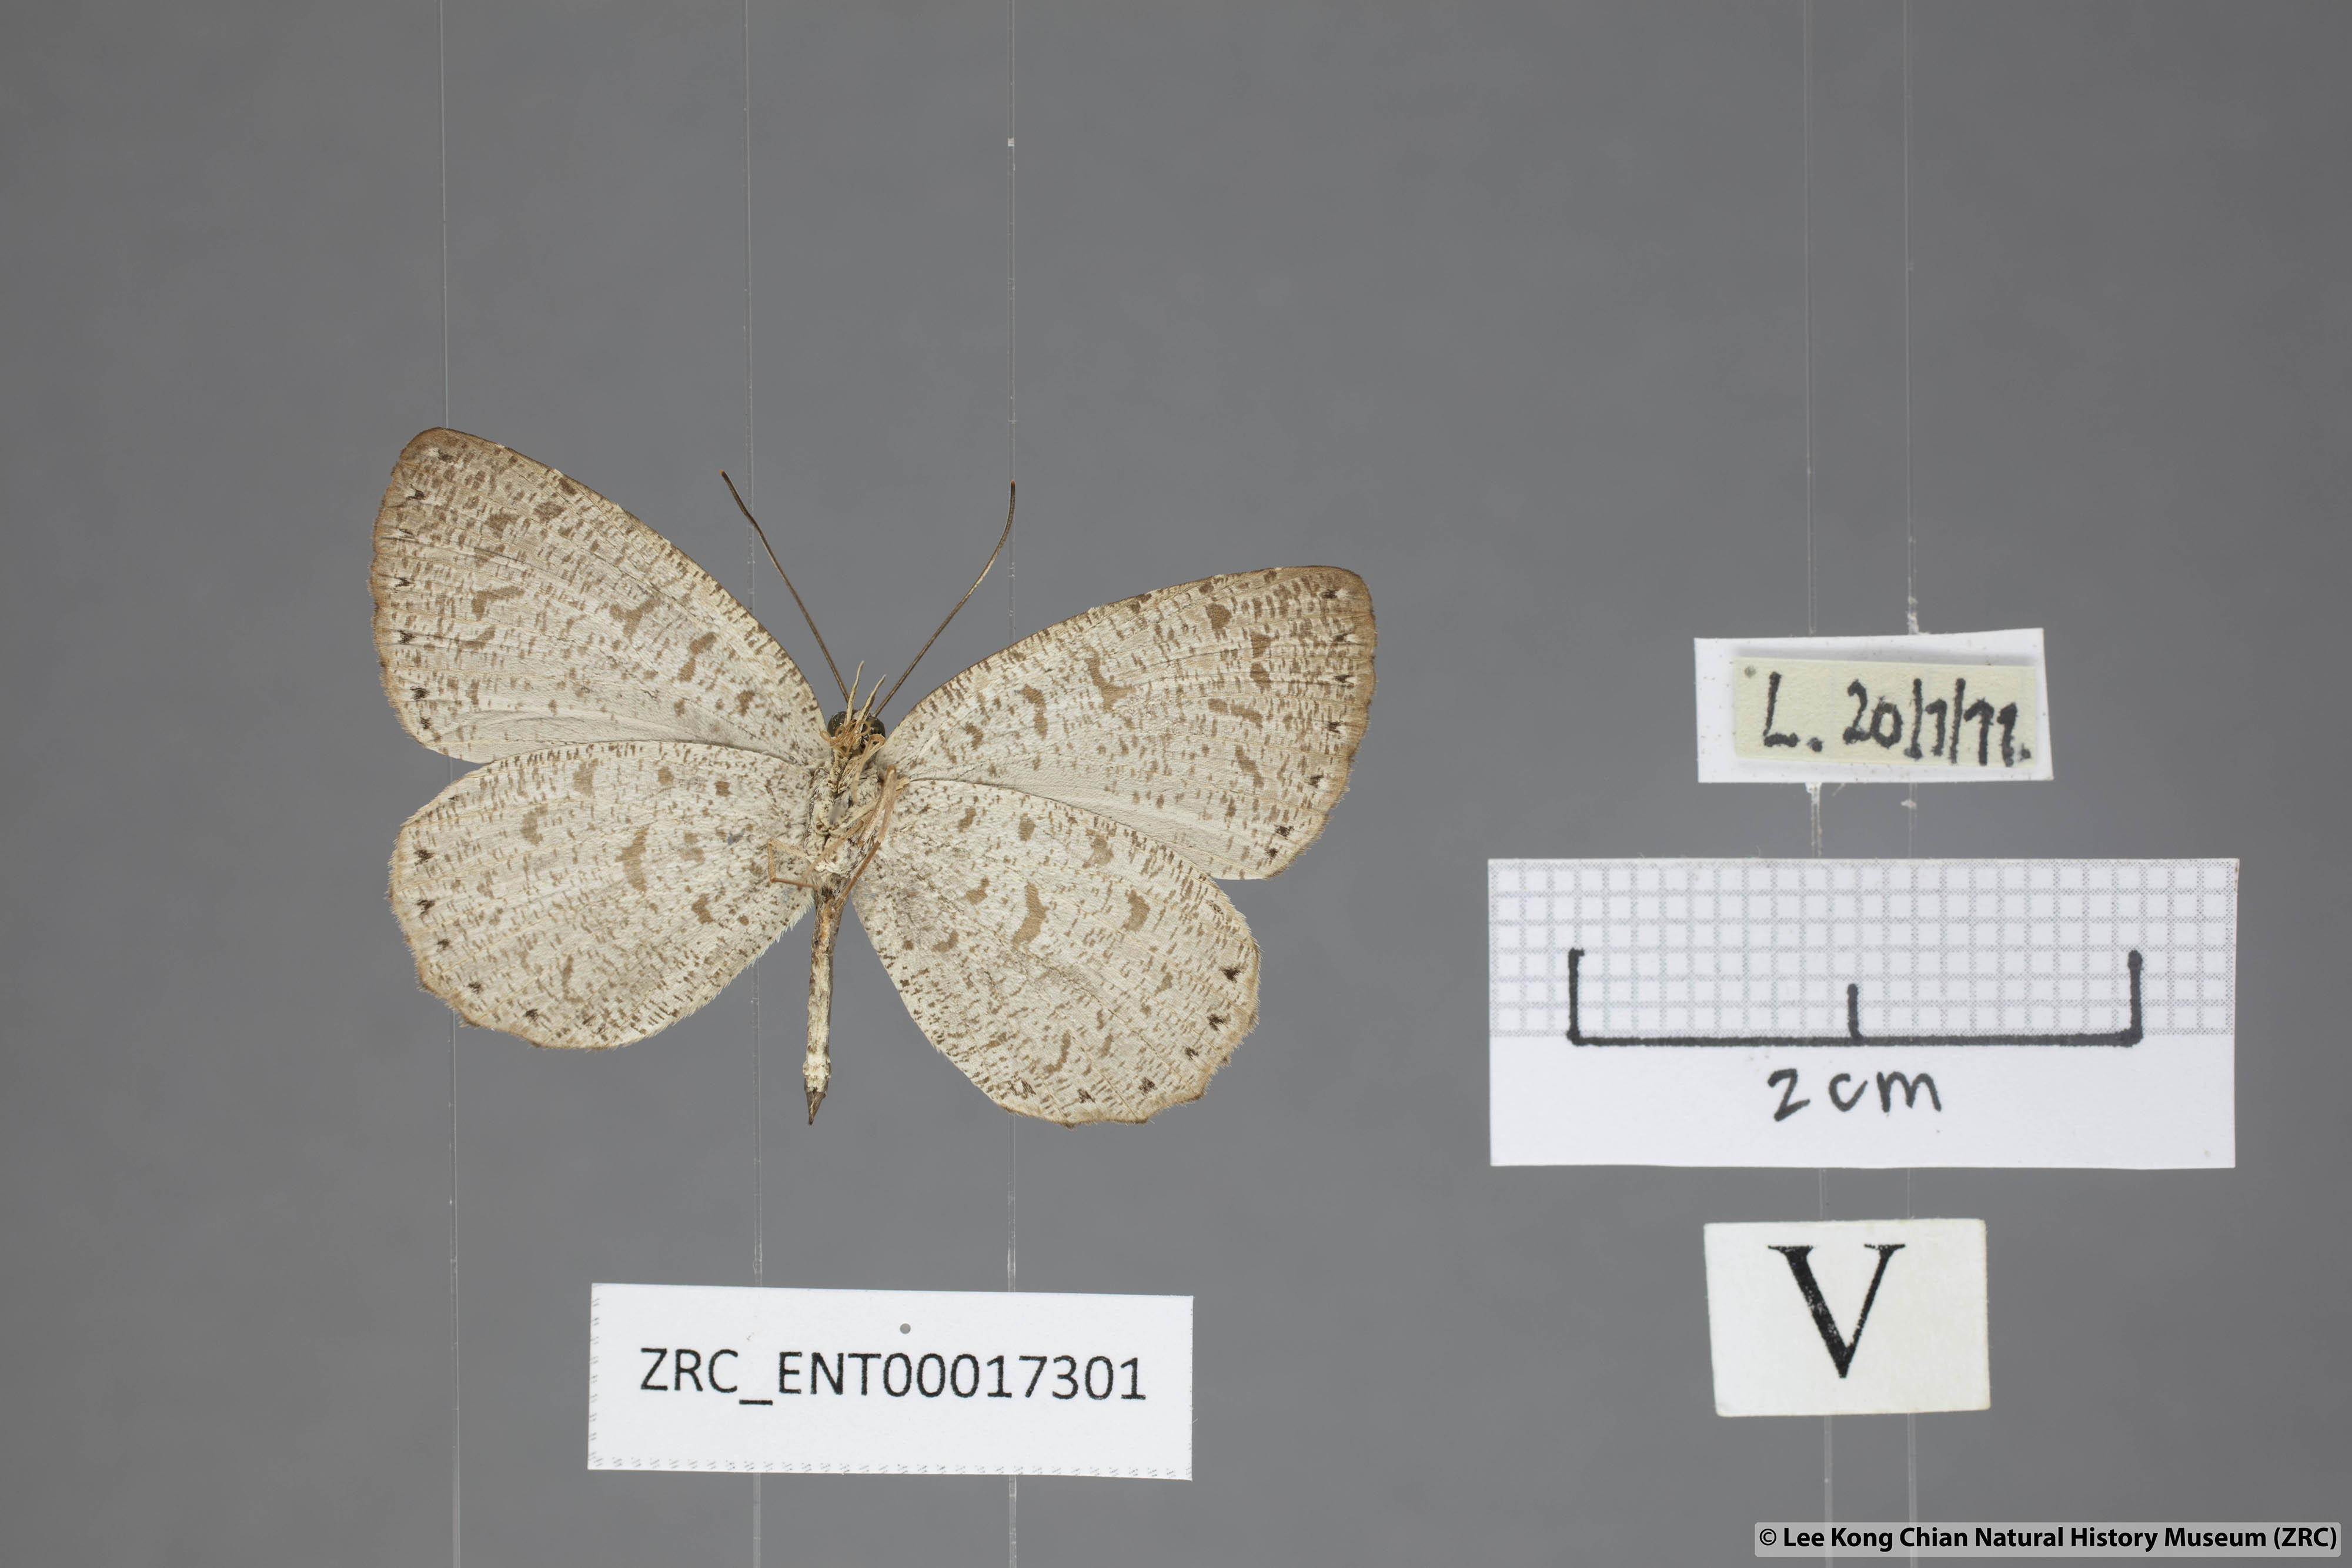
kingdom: Animalia
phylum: Arthropoda
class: Insecta
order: Lepidoptera
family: Lycaenidae
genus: Allotinus
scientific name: Allotinus strigatus
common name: Small malayan darkie
